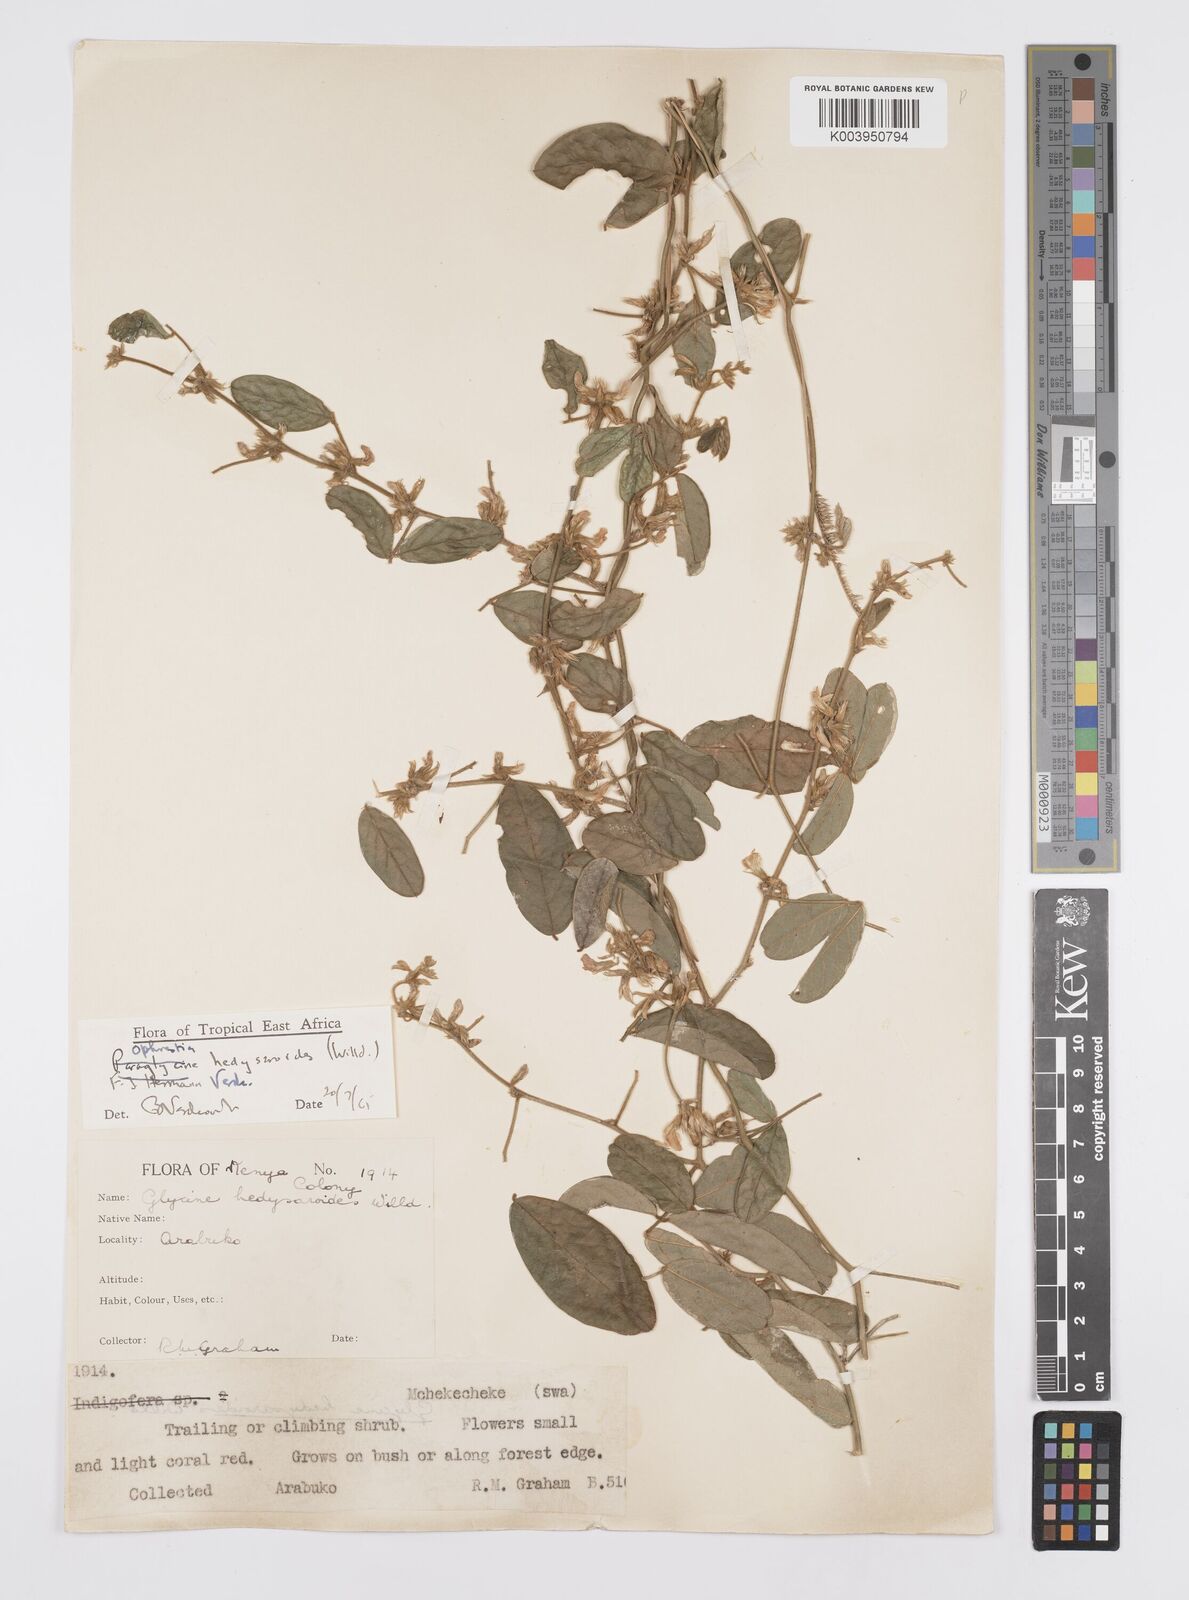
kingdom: Plantae
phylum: Tracheophyta
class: Magnoliopsida
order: Fabales
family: Fabaceae
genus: Ophrestia
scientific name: Ophrestia hedysaroides
